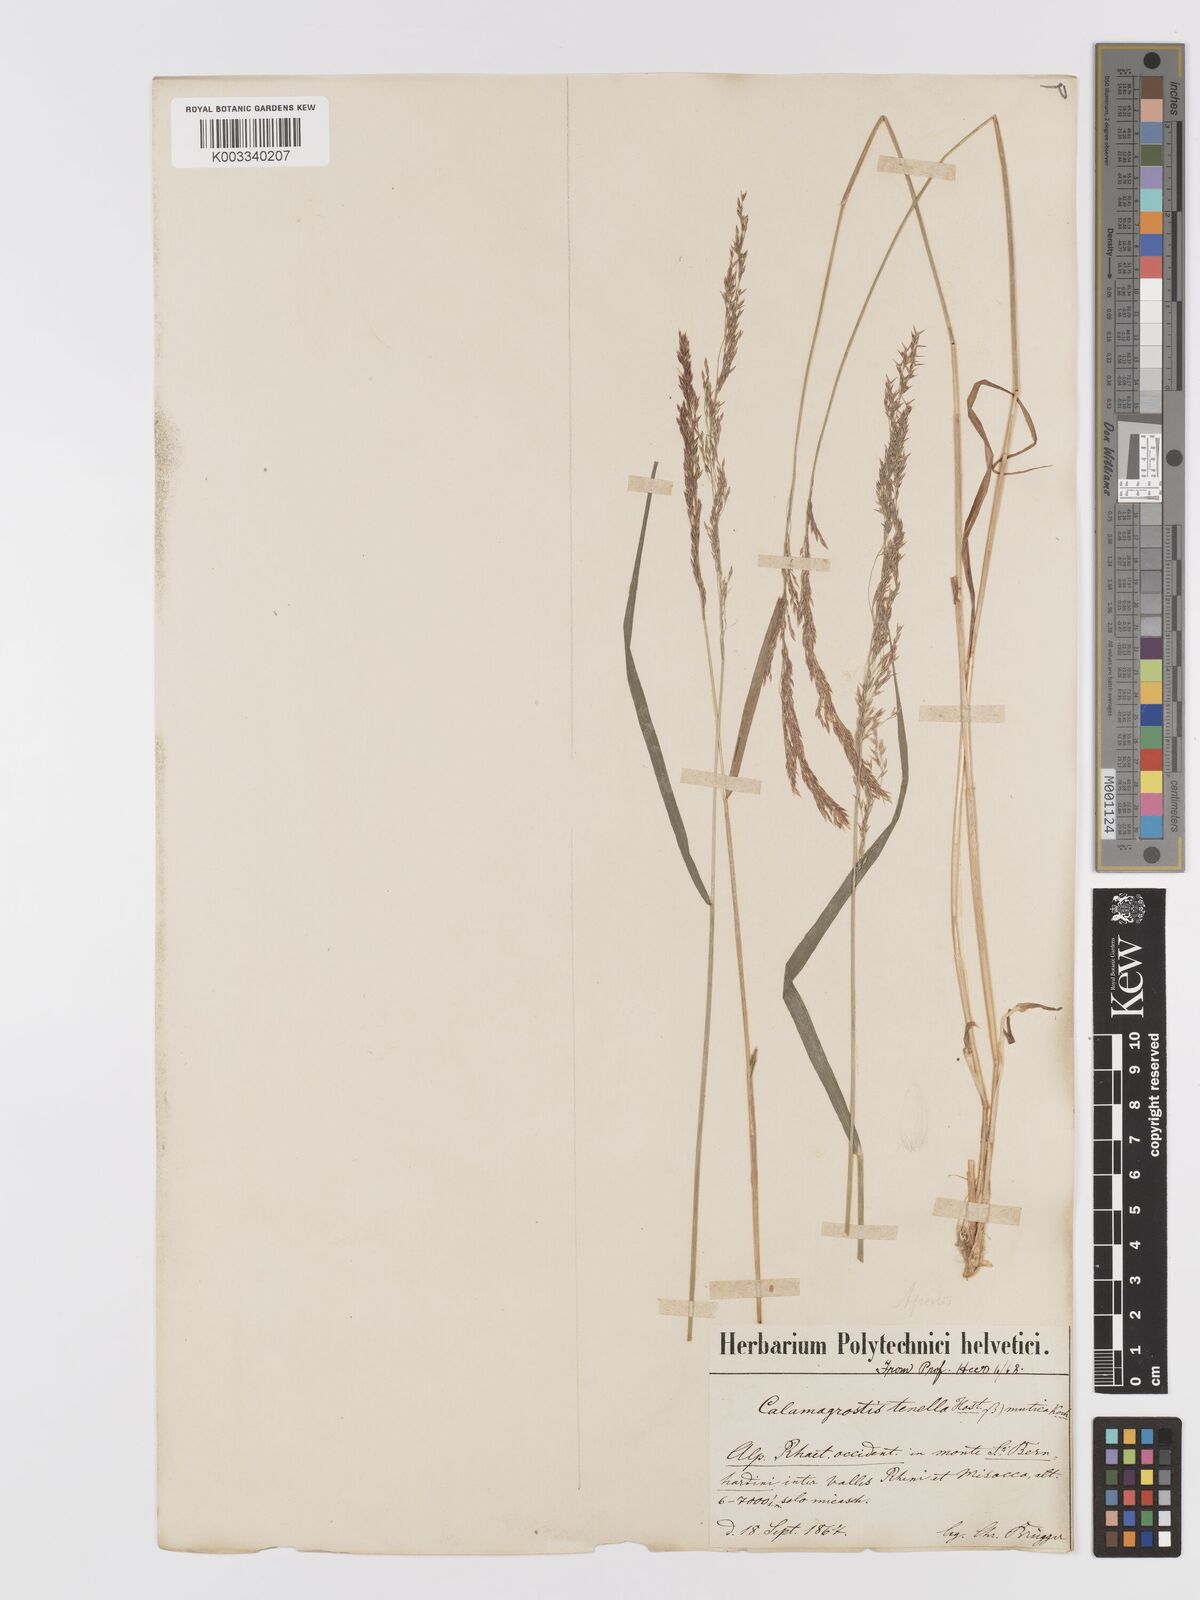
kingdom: Plantae
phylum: Tracheophyta
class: Liliopsida
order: Poales
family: Poaceae
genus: Agrostis
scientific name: Agrostis schraderiana
